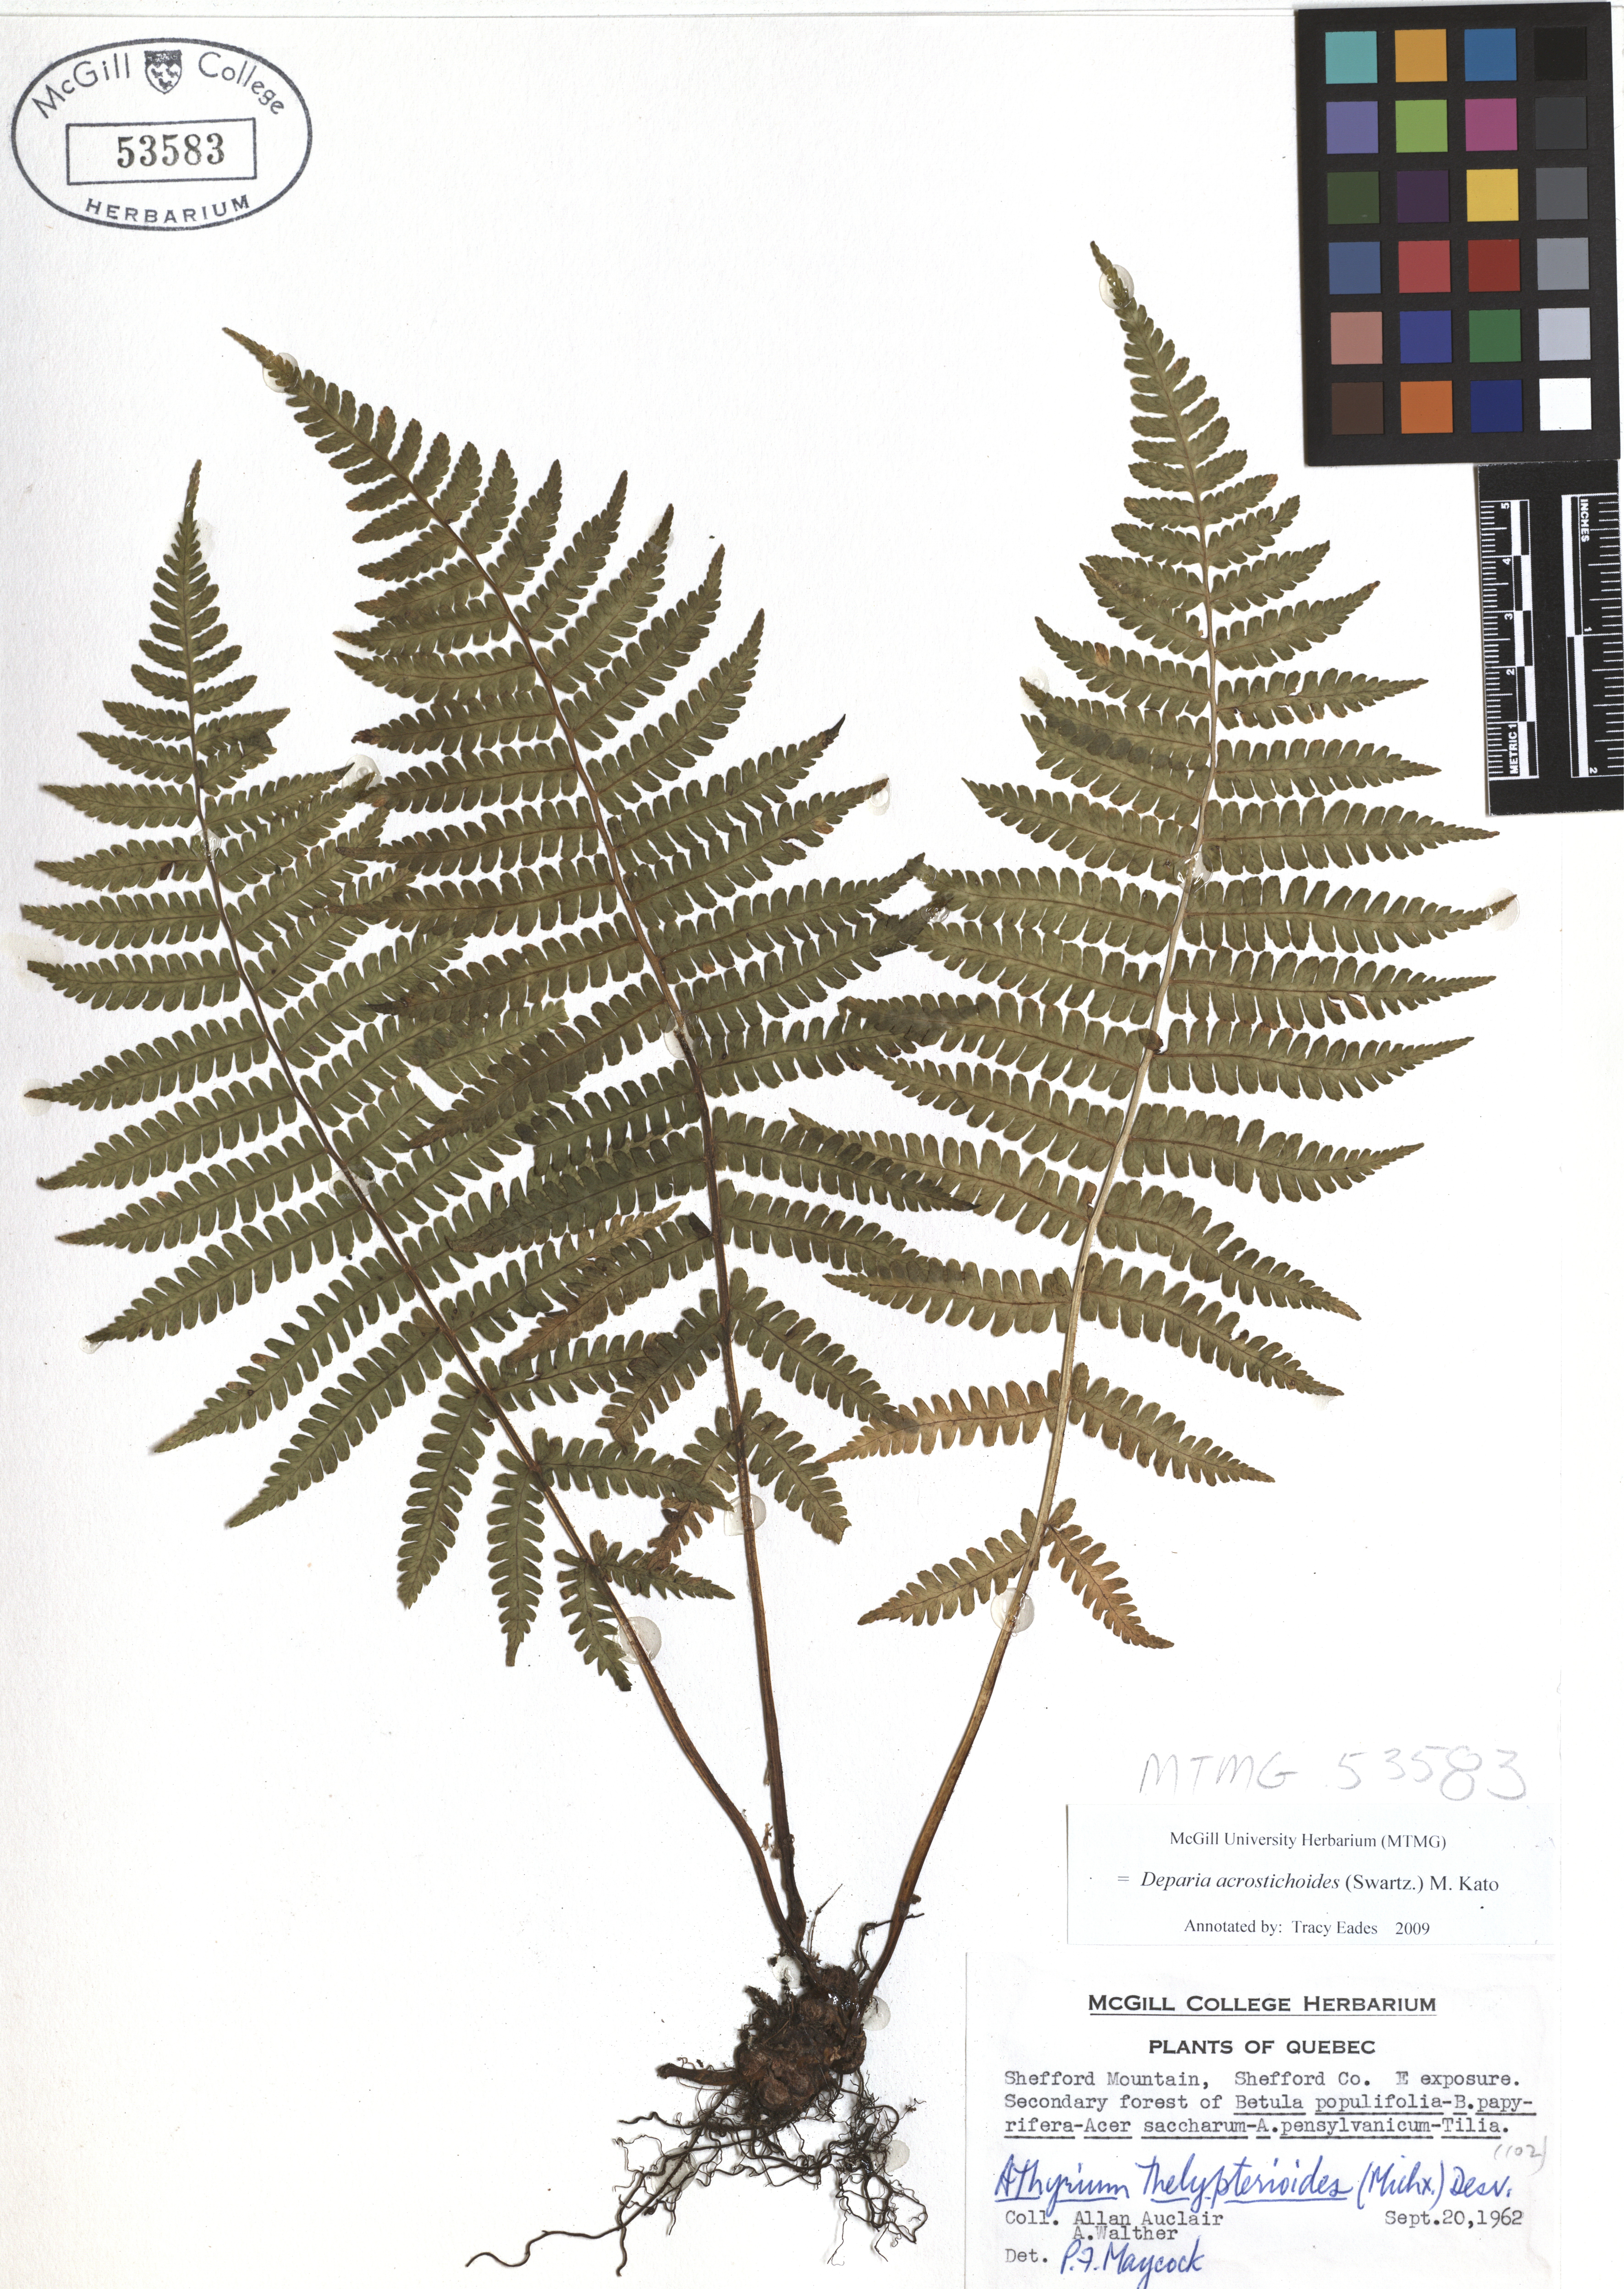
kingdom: Plantae
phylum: Tracheophyta
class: Polypodiopsida
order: Polypodiales
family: Athyriaceae
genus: Deparia
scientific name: Deparia acrostichoides
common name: Silver false spleenwort
